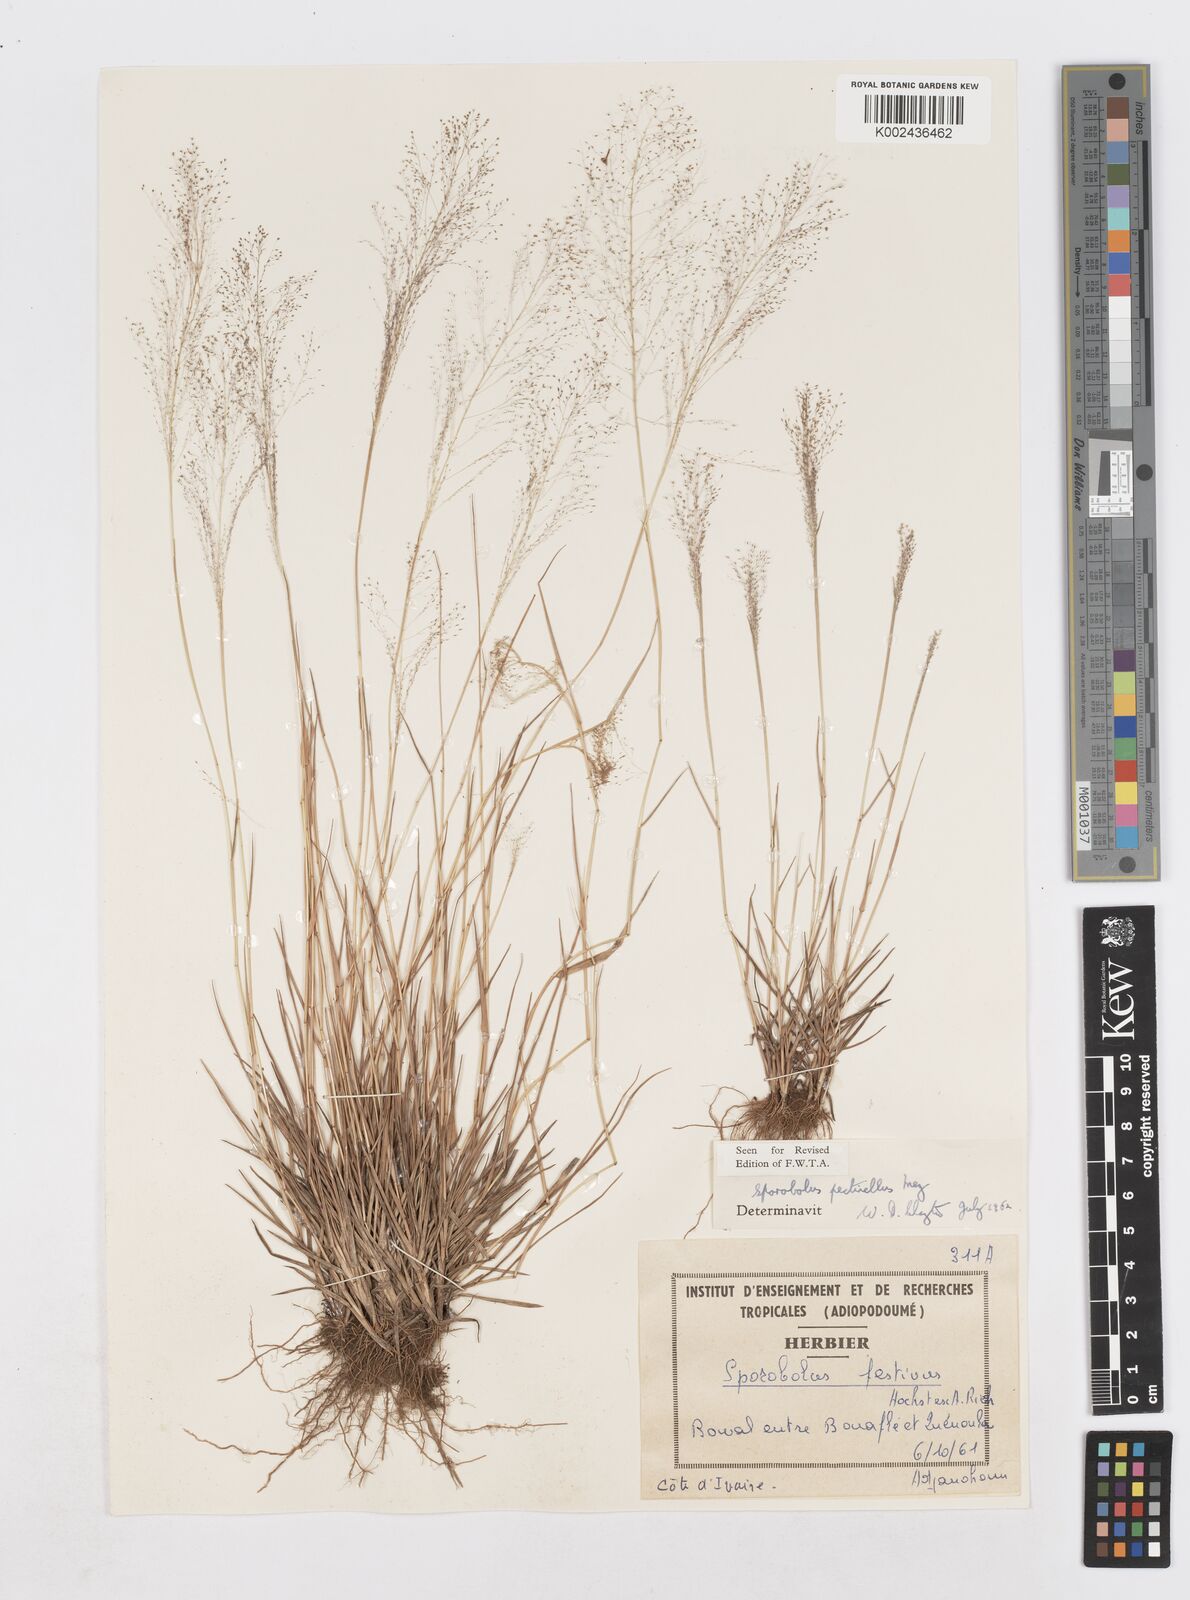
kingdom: Plantae
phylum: Tracheophyta
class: Liliopsida
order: Poales
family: Poaceae
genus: Sporobolus
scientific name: Sporobolus pectinellus
